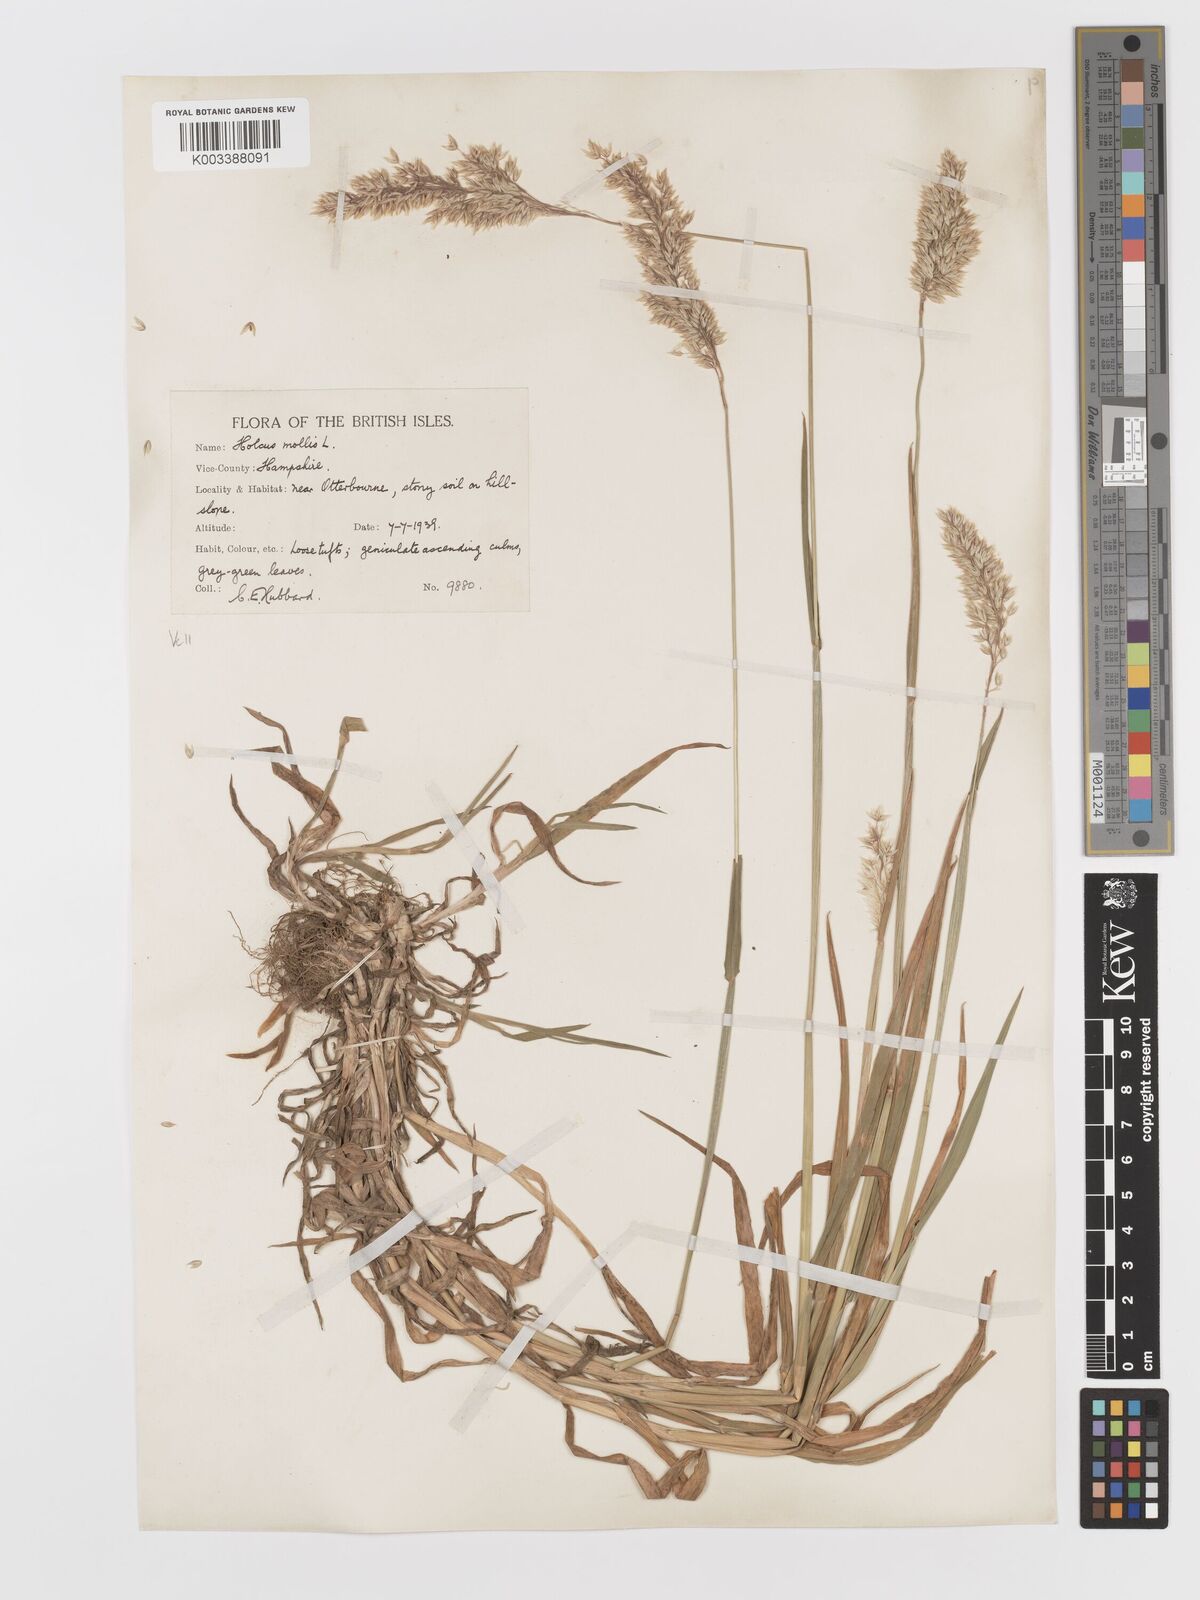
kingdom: Plantae
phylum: Tracheophyta
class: Liliopsida
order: Poales
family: Poaceae
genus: Holcus
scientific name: Holcus mollis
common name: Creeping velvetgrass
